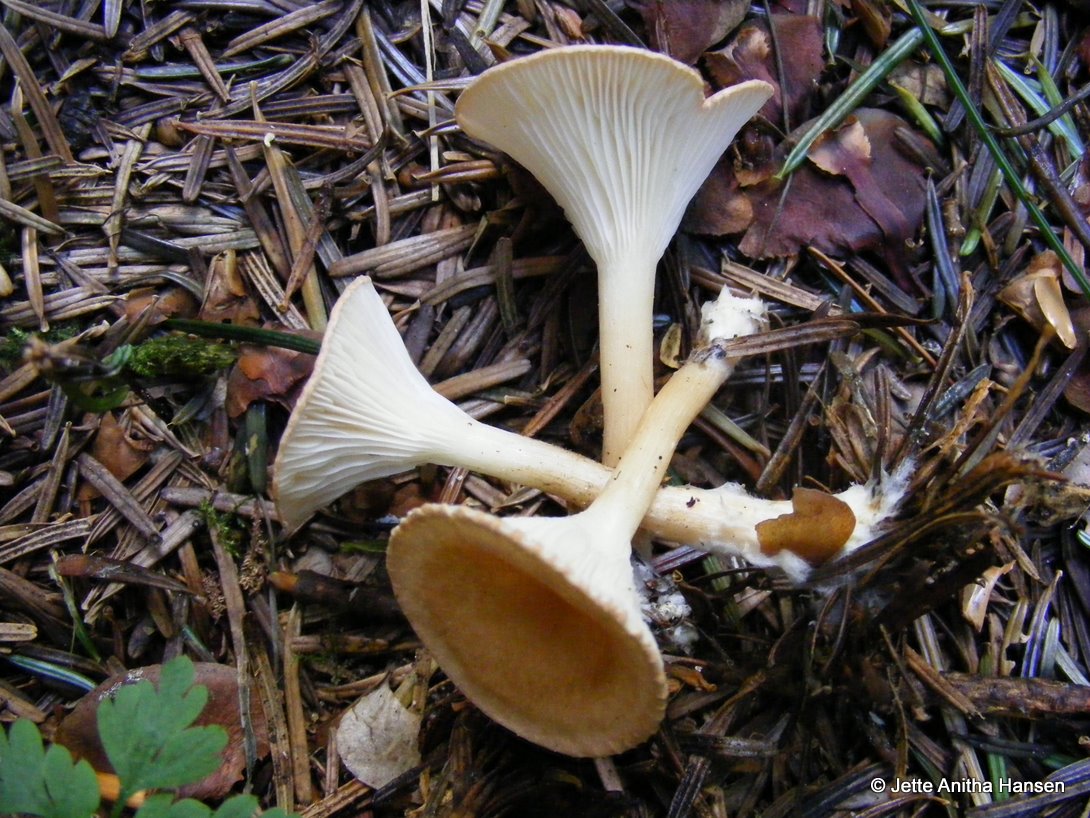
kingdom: Fungi
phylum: Basidiomycota
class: Agaricomycetes
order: Agaricales
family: Tricholomataceae
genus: Infundibulicybe
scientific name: Infundibulicybe gibba
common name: almindelig tragthat
